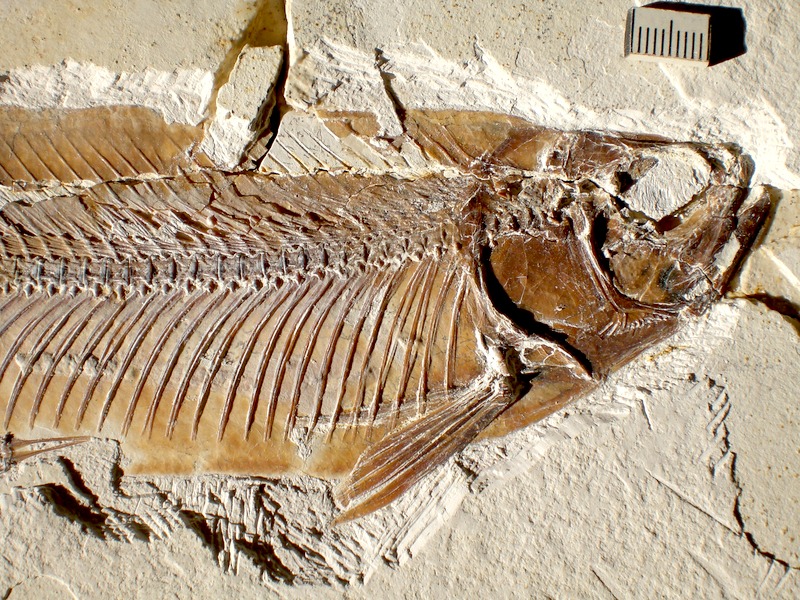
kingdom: Animalia
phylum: Chordata
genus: Thrissops
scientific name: Thrissops formosus
